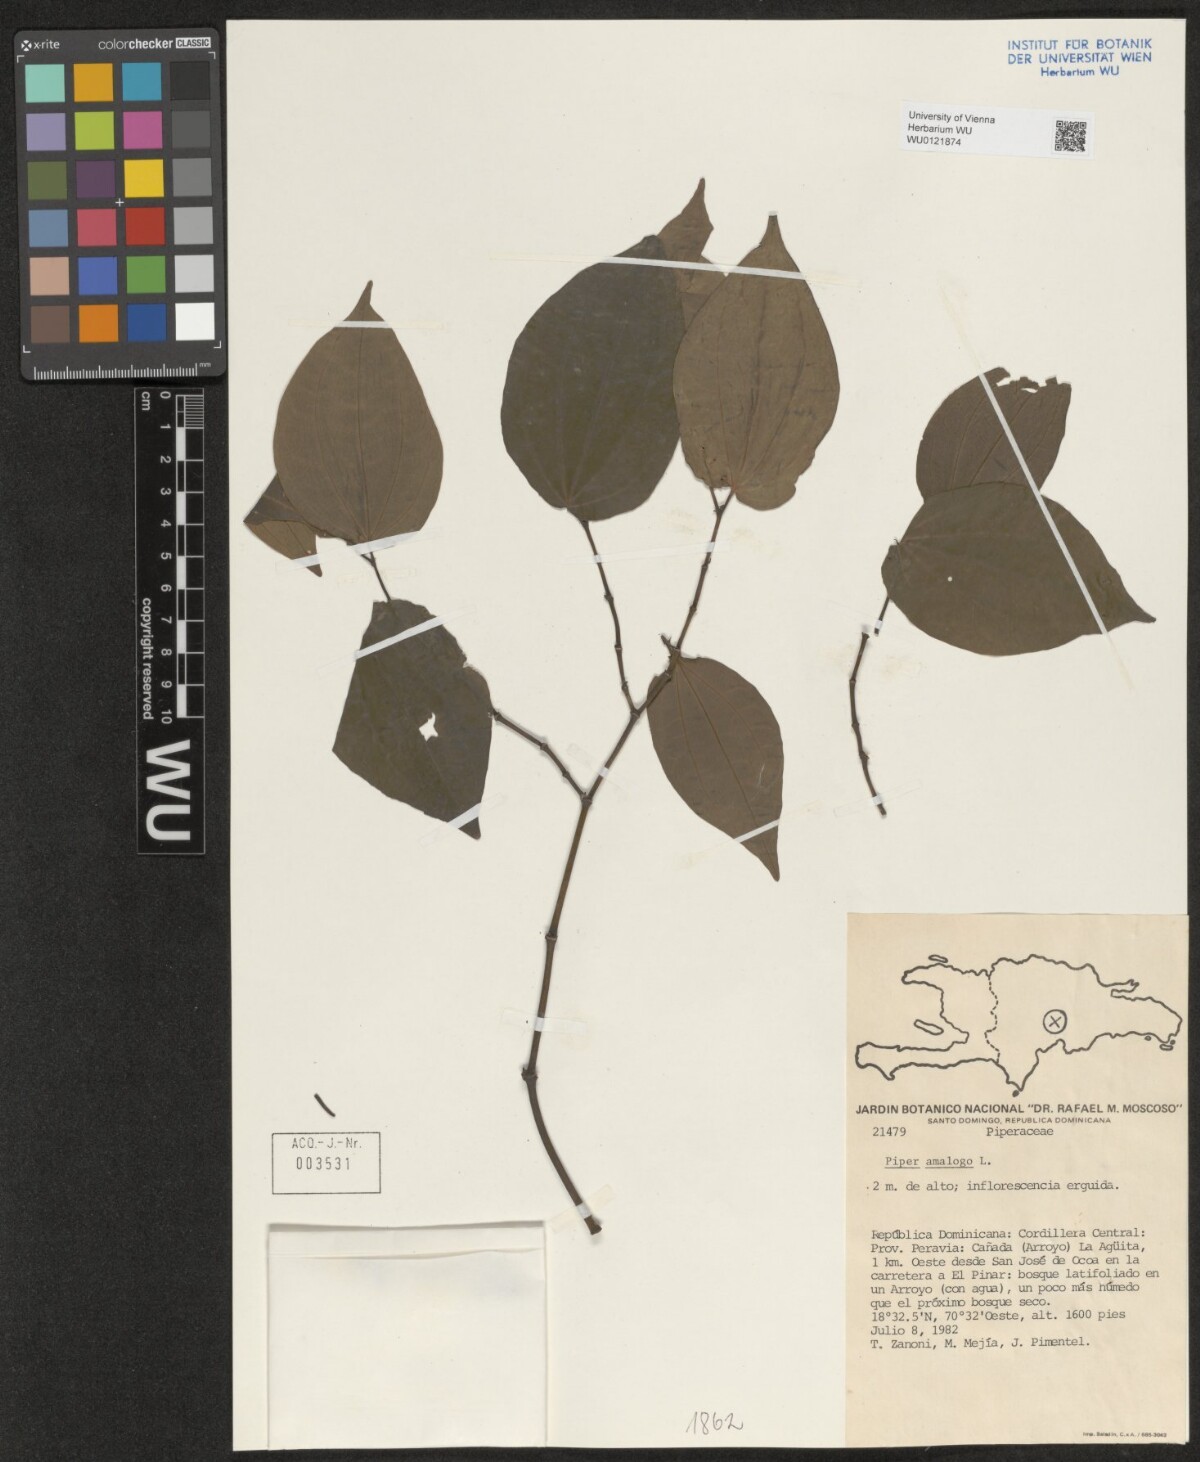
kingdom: Plantae
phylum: Tracheophyta
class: Magnoliopsida
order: Piperales
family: Piperaceae
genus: Piper
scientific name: Piper amalago
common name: Pepper-elder
